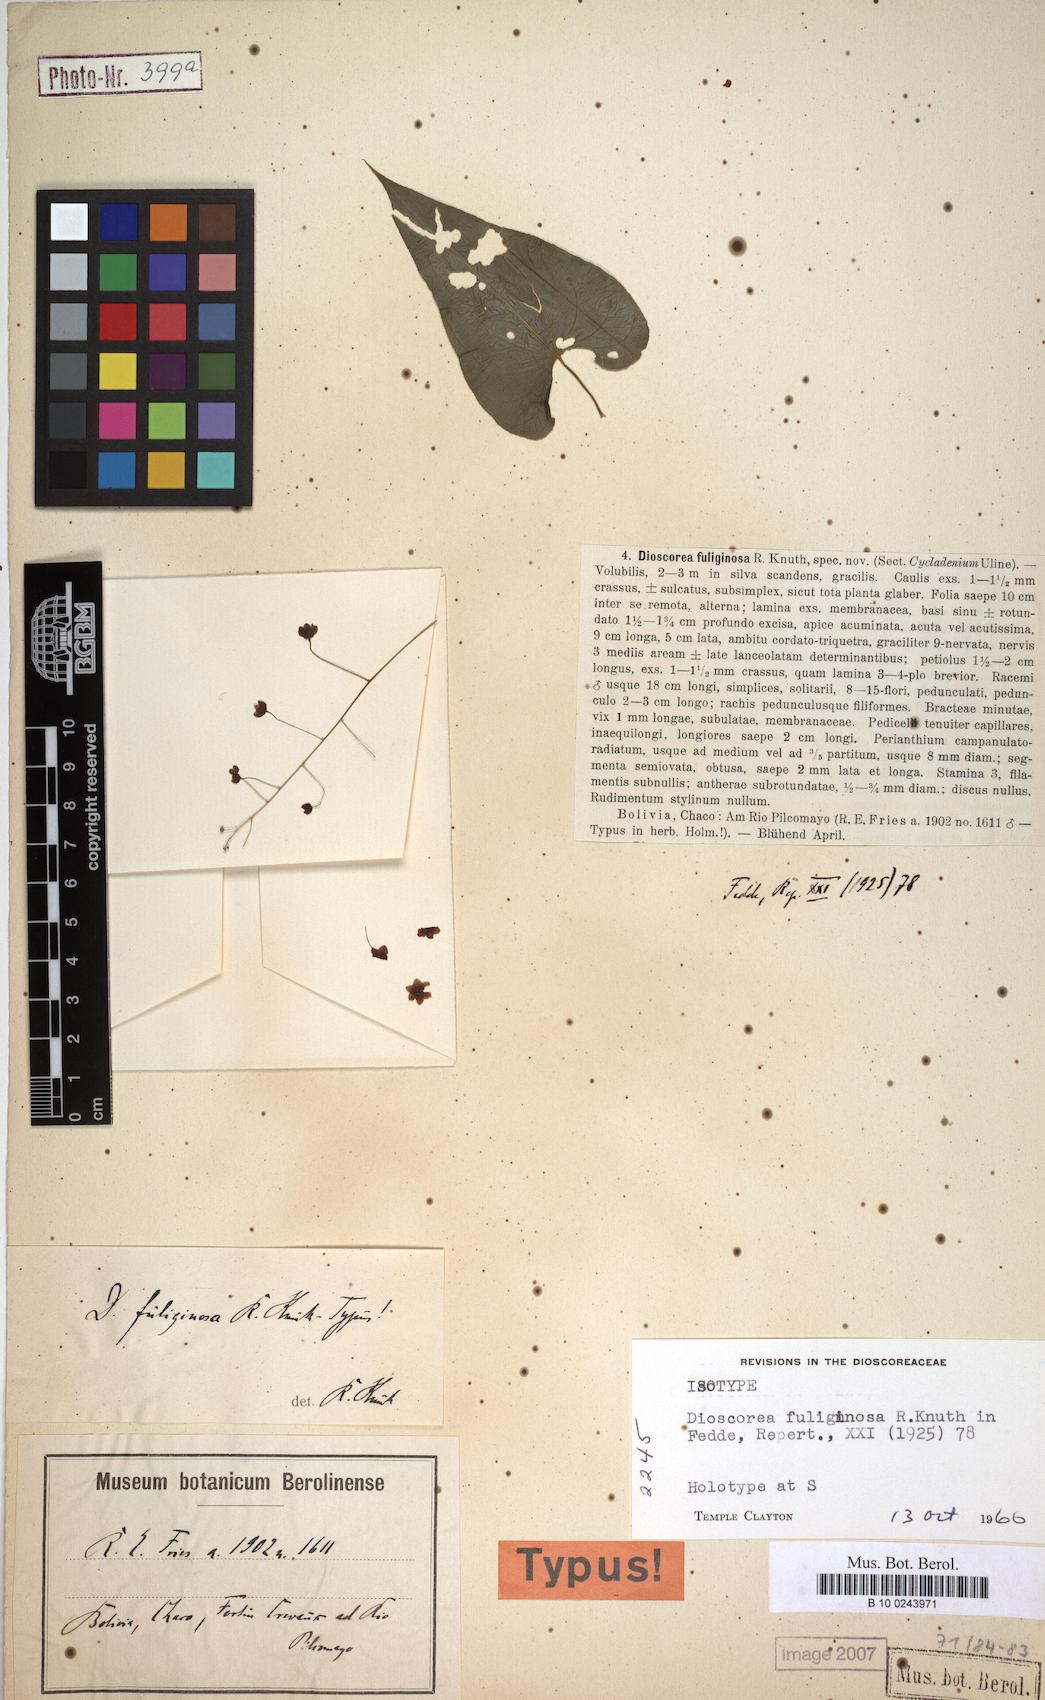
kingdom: Plantae
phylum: Tracheophyta
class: Liliopsida
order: Dioscoreales
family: Dioscoreaceae
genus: Dioscorea
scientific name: Dioscorea fuliginosa
